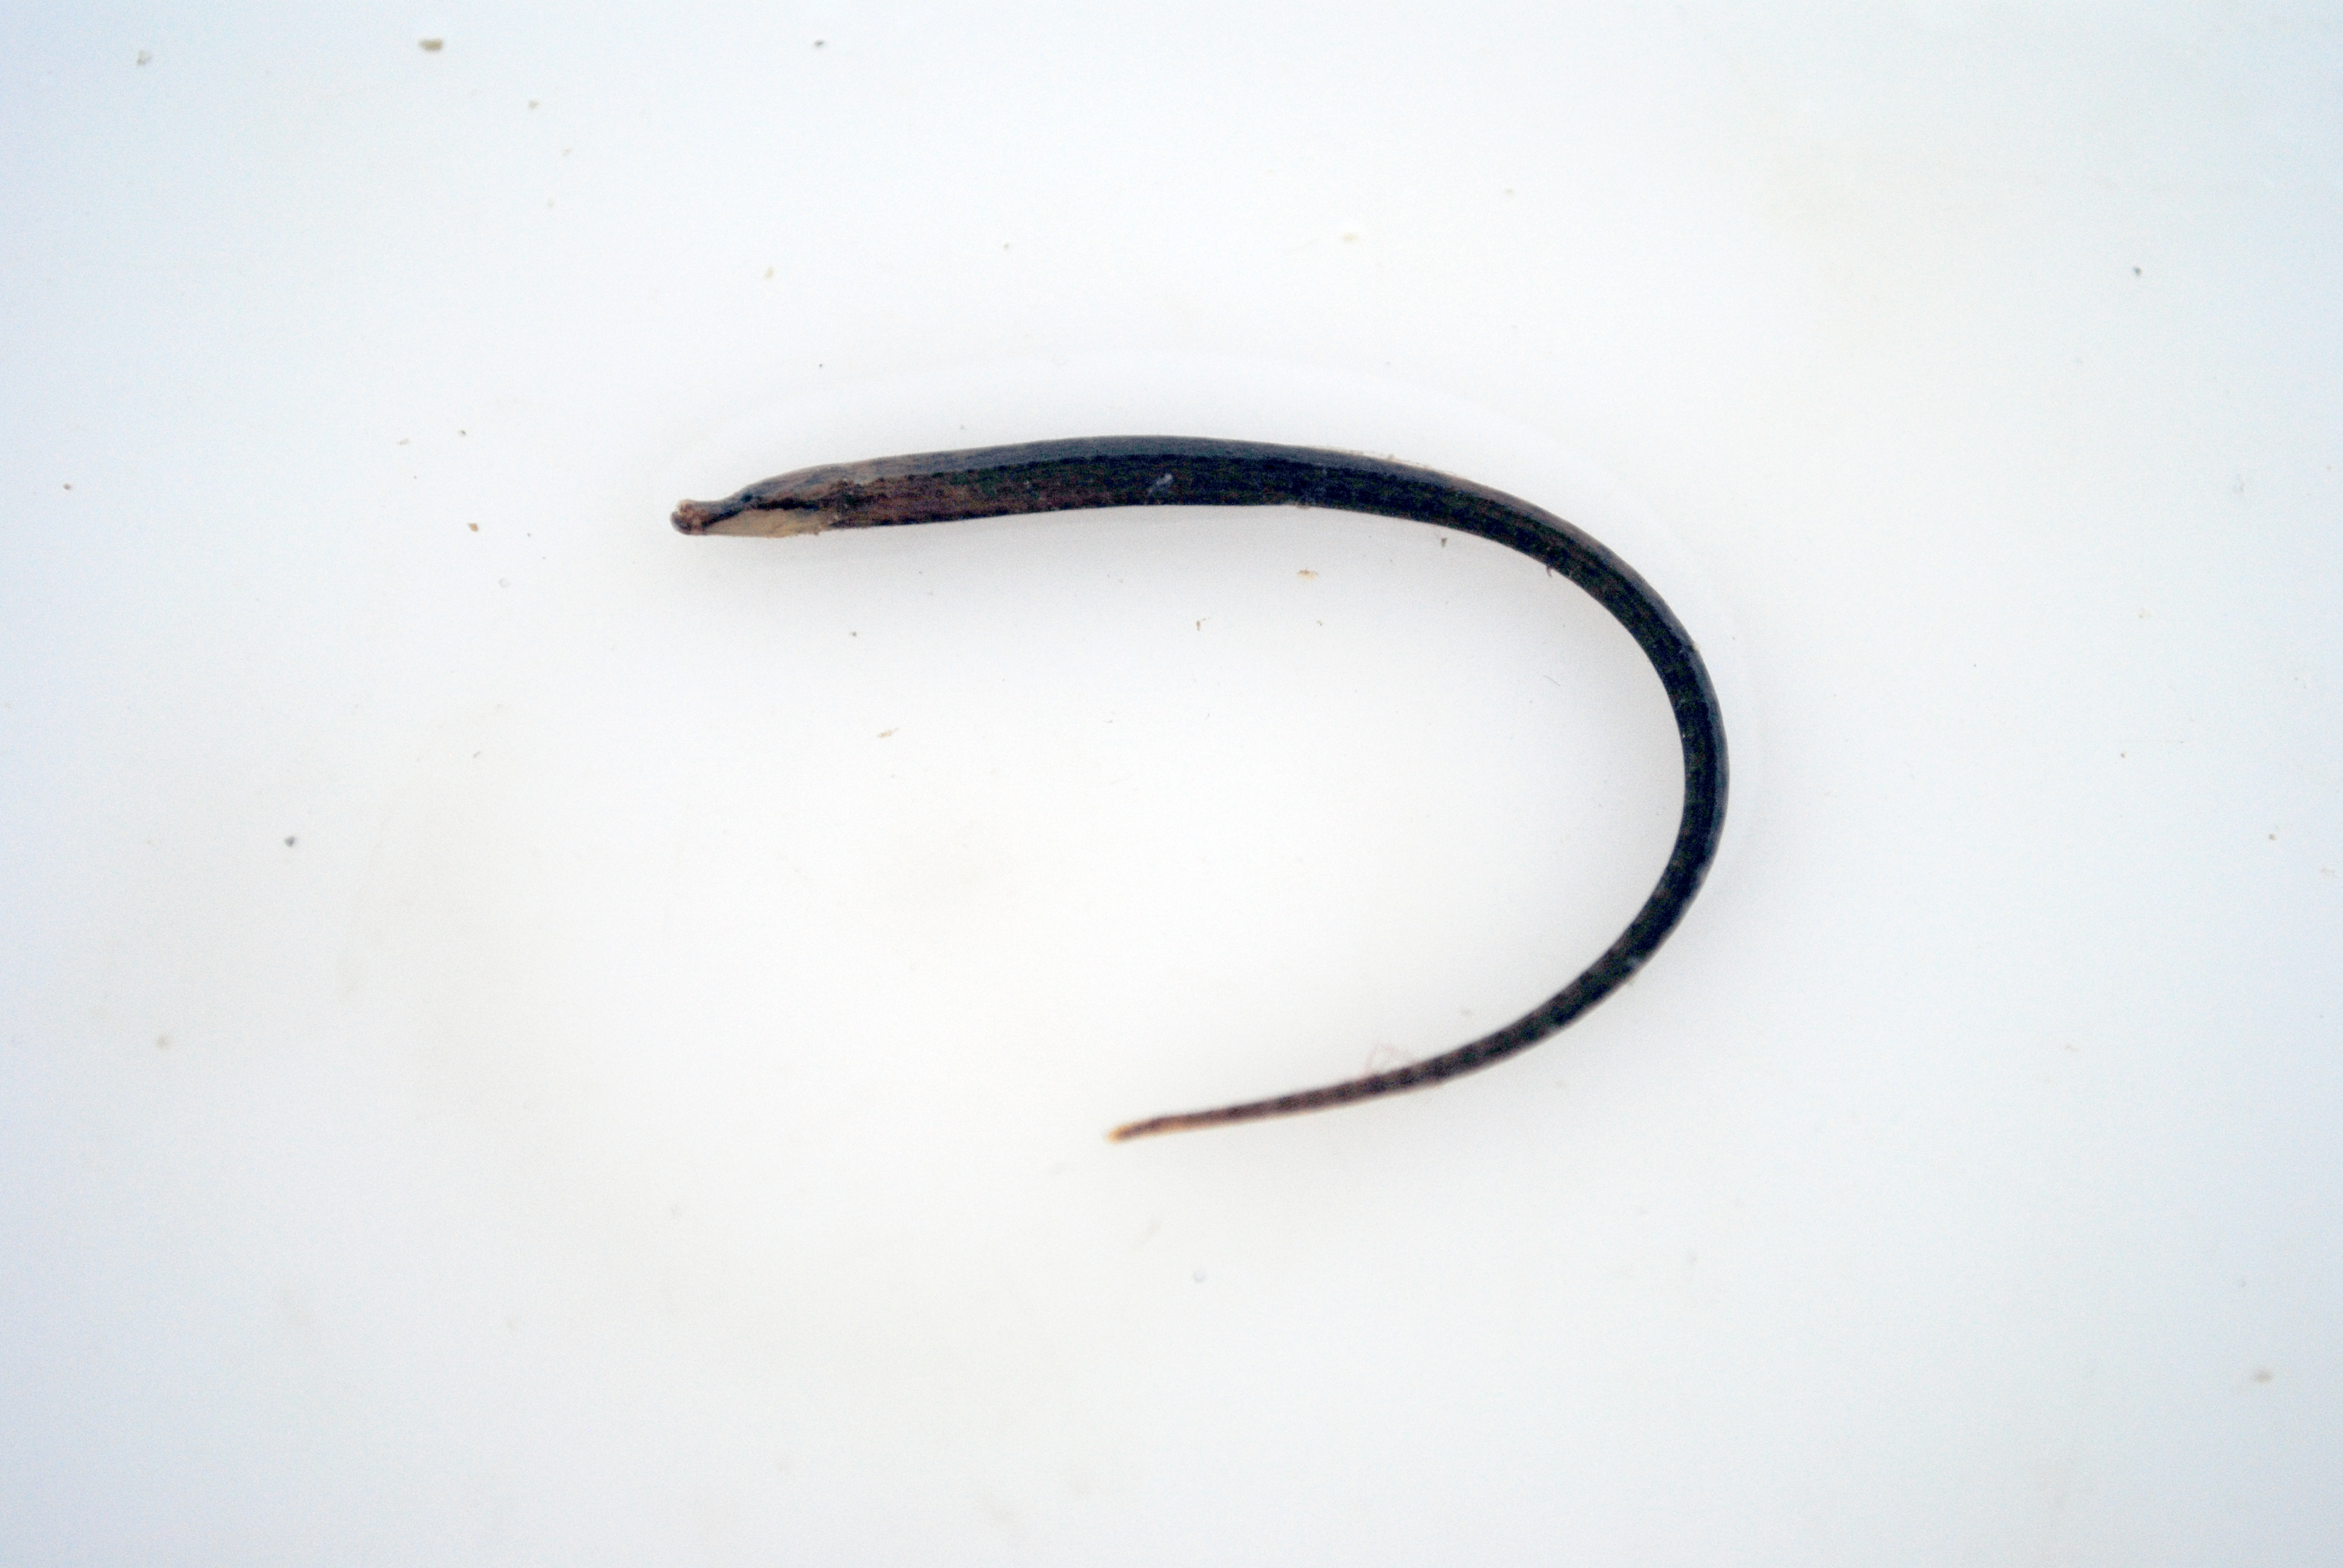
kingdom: Animalia
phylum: Chordata
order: Syngnathiformes
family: Syngnathidae
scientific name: Syngnathidae
